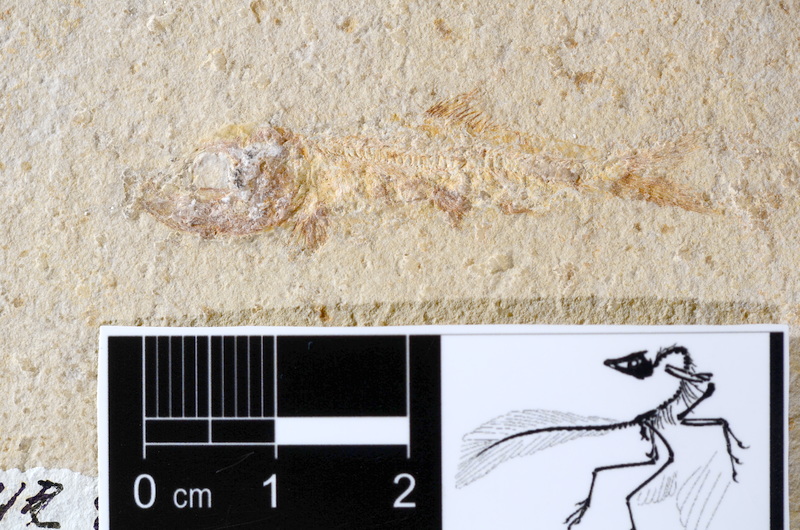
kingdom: Animalia
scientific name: Animalia
